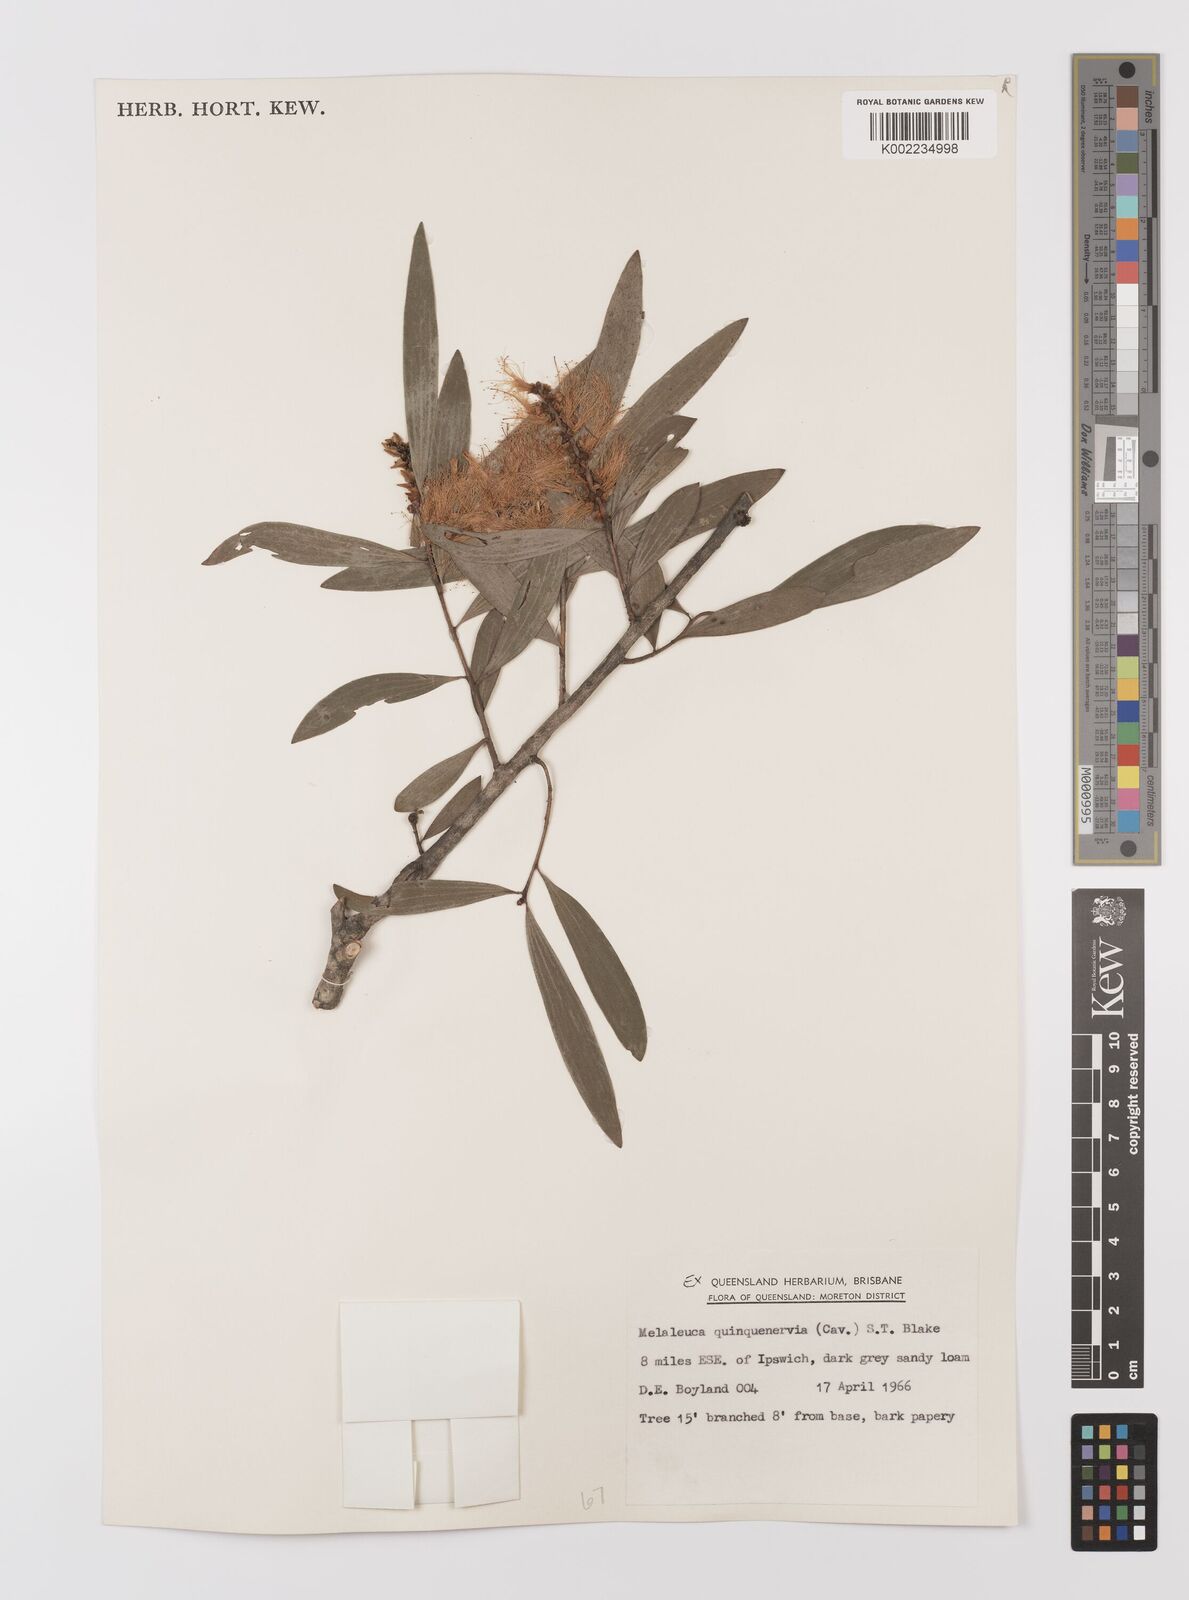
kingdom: Plantae
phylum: Tracheophyta
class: Magnoliopsida
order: Myrtales
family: Myrtaceae
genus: Melaleuca
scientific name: Melaleuca quinquenervia
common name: Punktree
